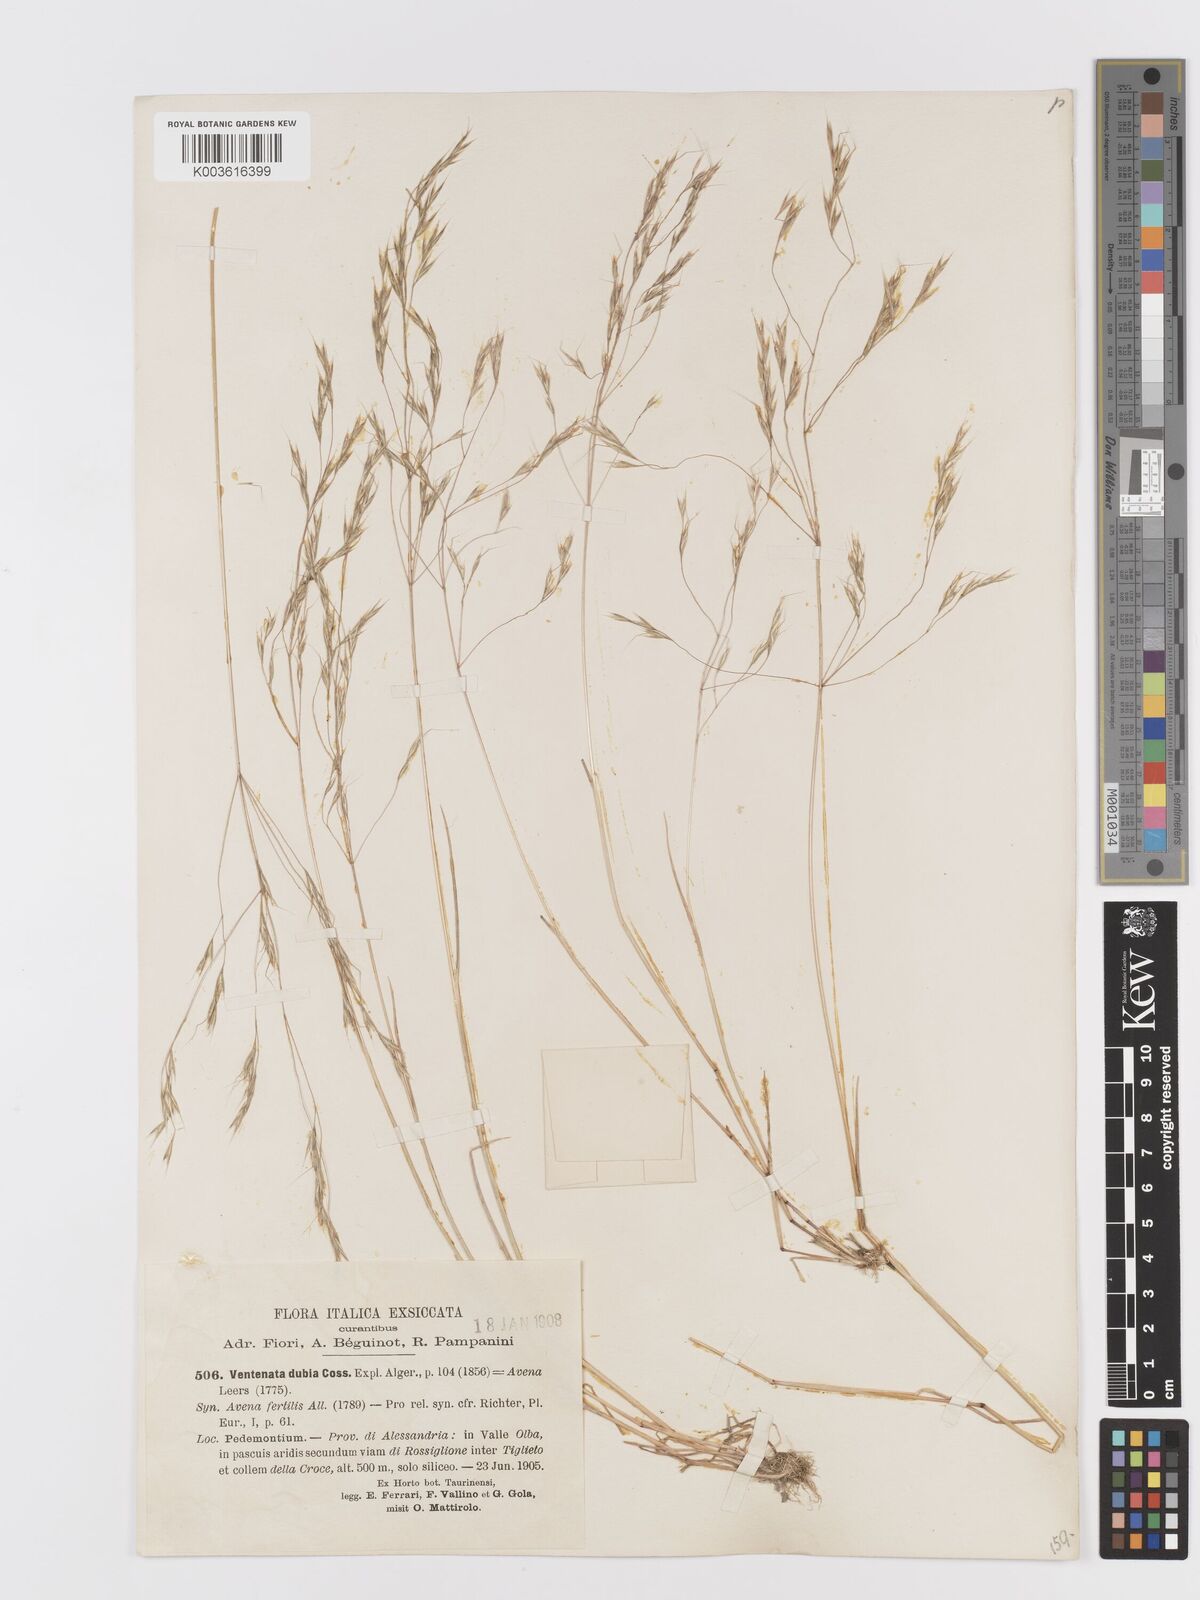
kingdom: Plantae
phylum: Tracheophyta
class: Liliopsida
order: Poales
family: Poaceae
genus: Ventenata
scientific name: Ventenata dubia
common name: North africa grass
